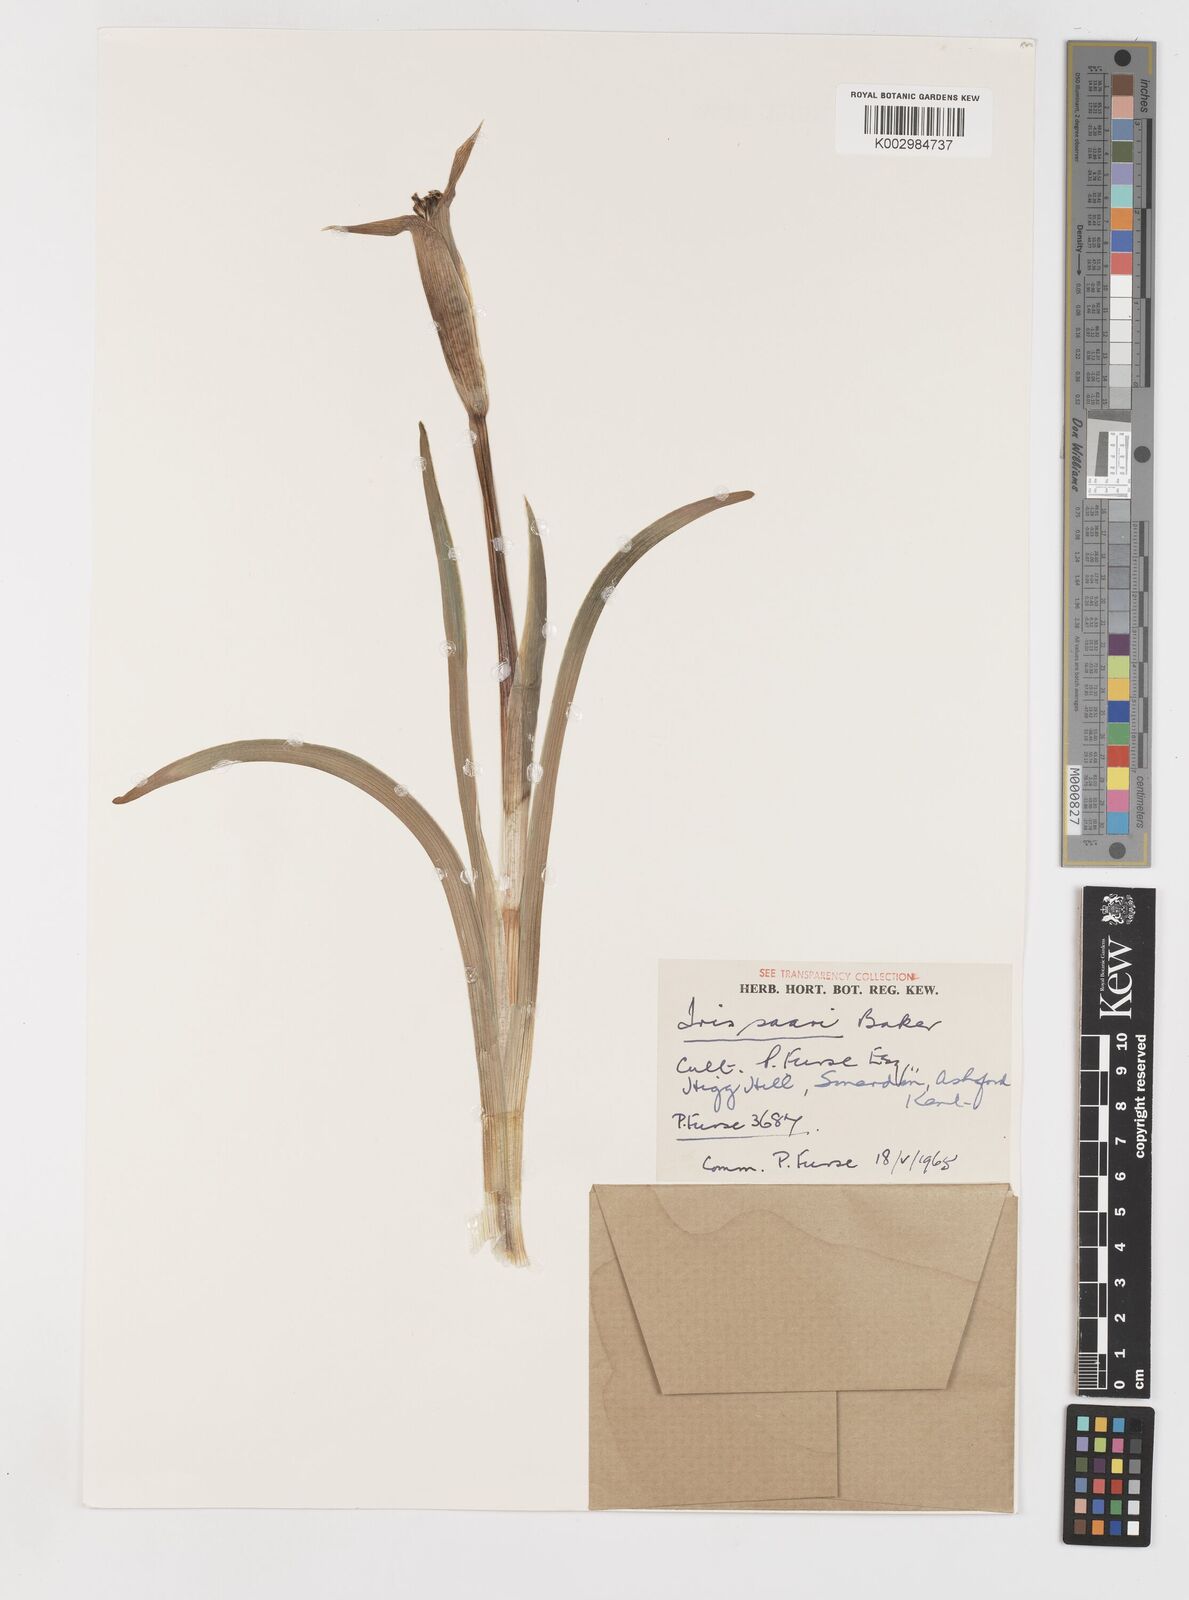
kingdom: Plantae
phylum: Tracheophyta
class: Liliopsida
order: Asparagales
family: Iridaceae
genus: Iris
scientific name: Iris sari
